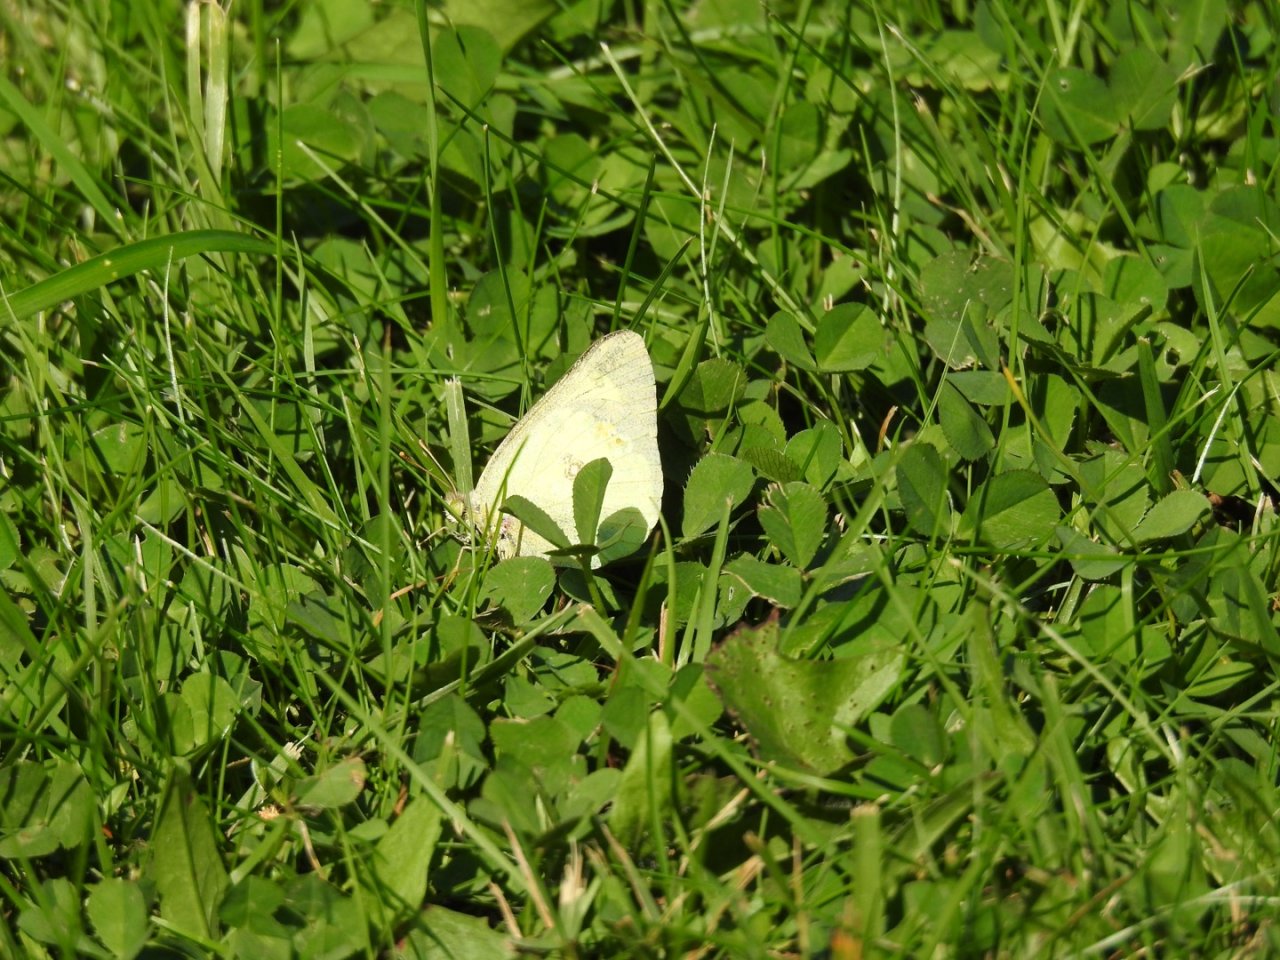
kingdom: Animalia
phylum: Arthropoda
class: Insecta
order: Lepidoptera
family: Pieridae
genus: Colias
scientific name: Colias philodice
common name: Clouded Sulphur
